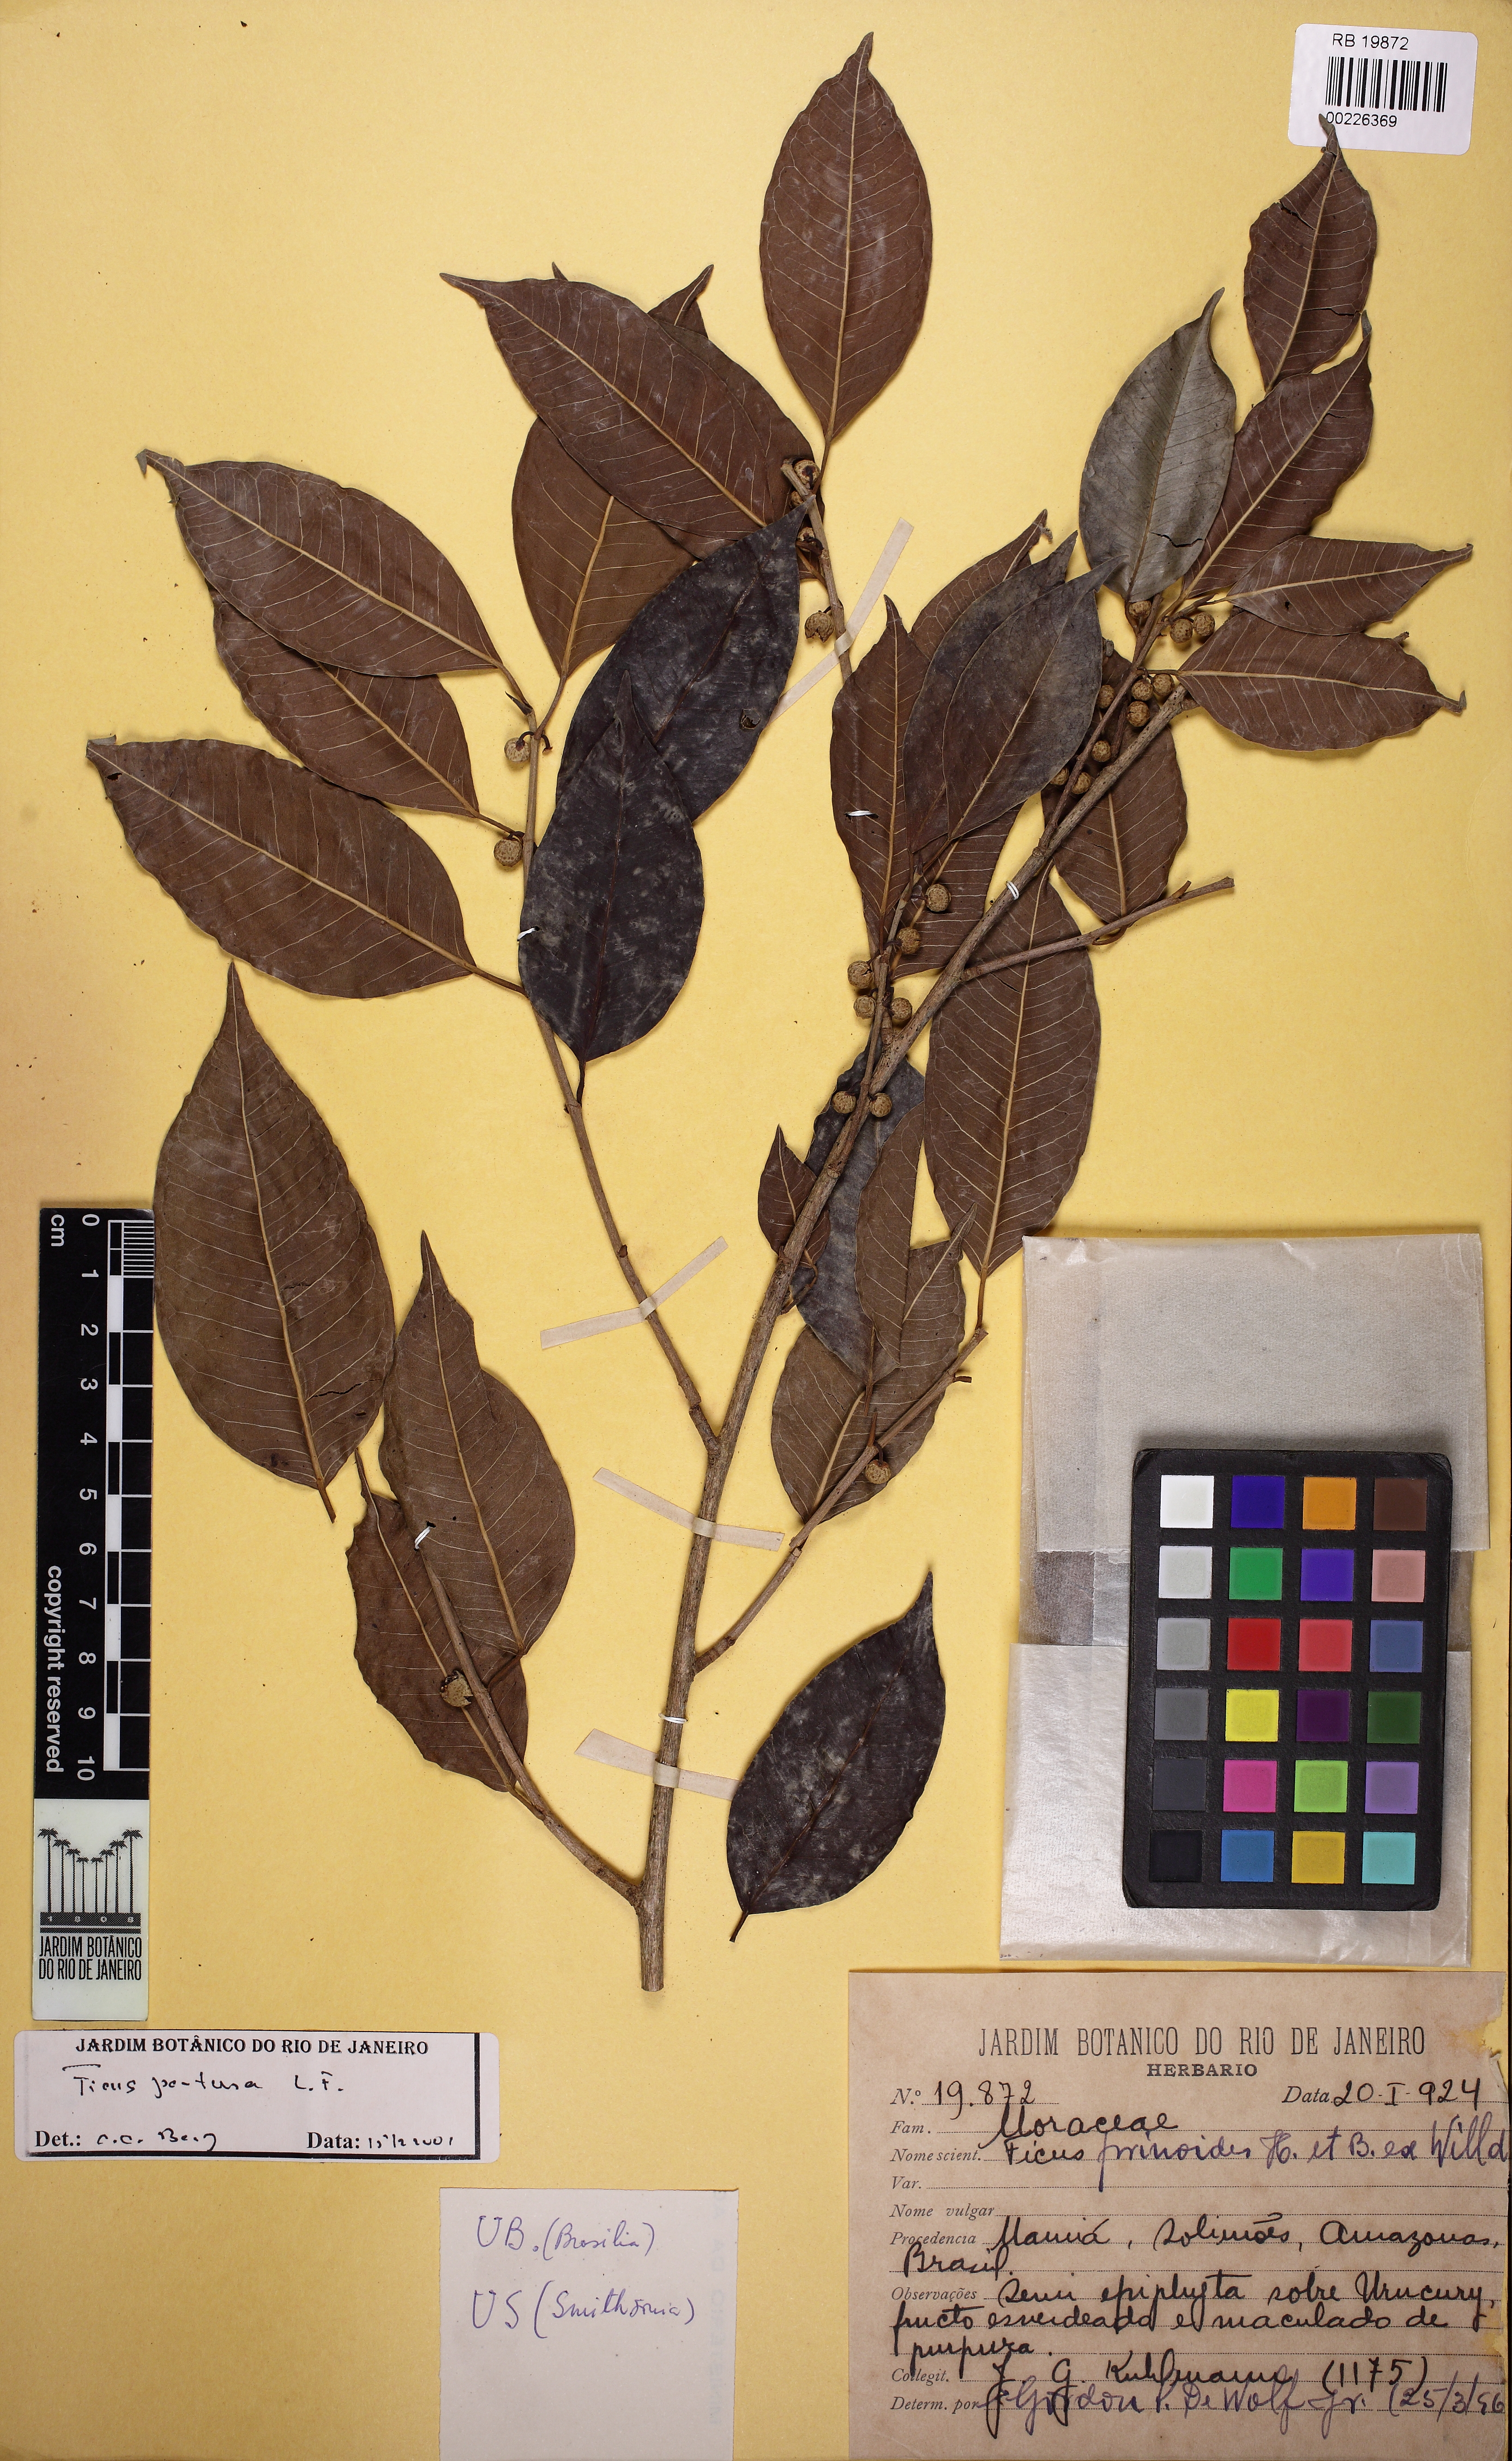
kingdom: Plantae
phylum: Tracheophyta
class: Magnoliopsida
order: Rosales
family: Moraceae
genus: Ficus
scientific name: Ficus pertusa
